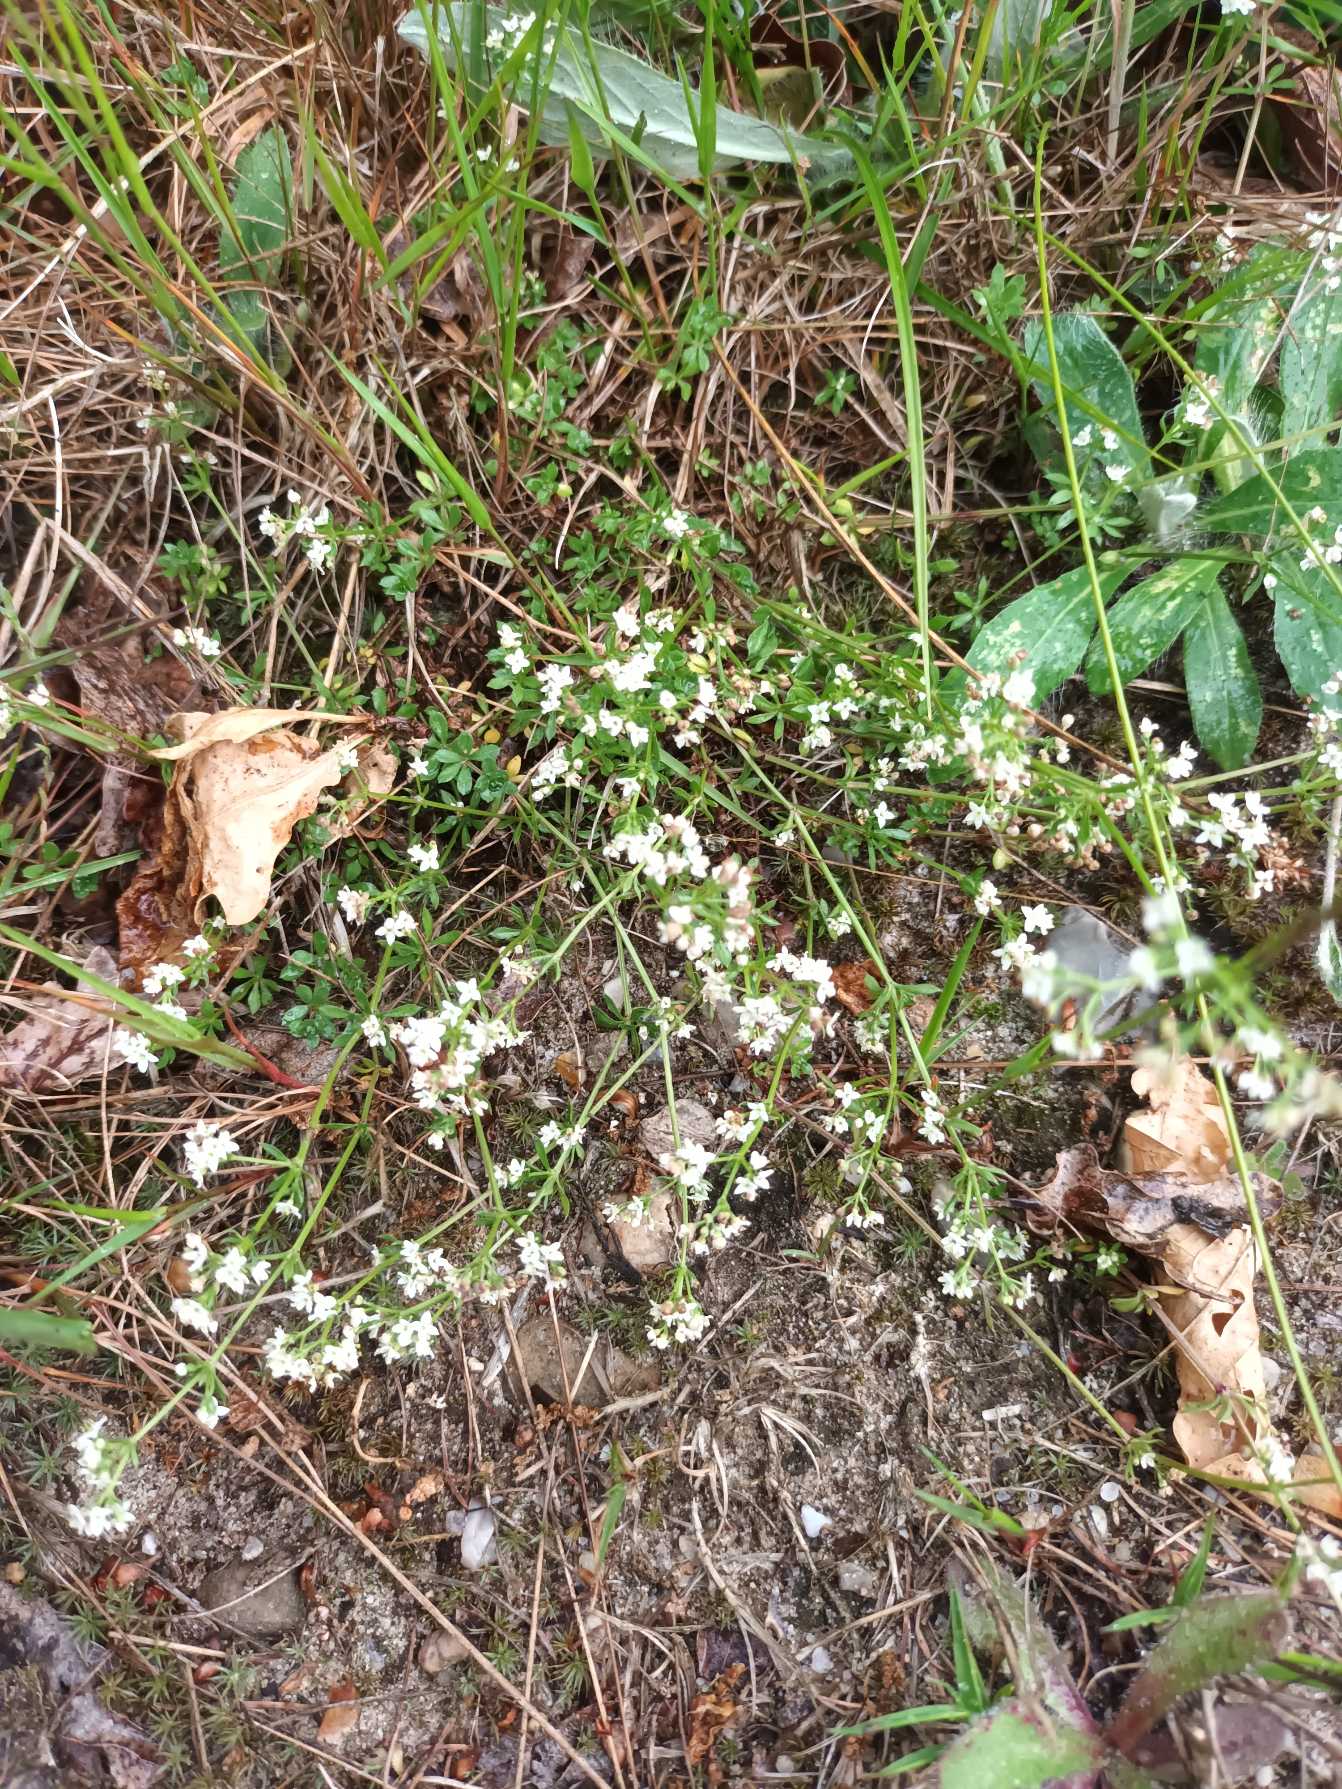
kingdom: Plantae
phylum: Tracheophyta
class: Magnoliopsida
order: Gentianales
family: Rubiaceae
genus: Galium
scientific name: Galium saxatile
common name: Lyng-snerre
